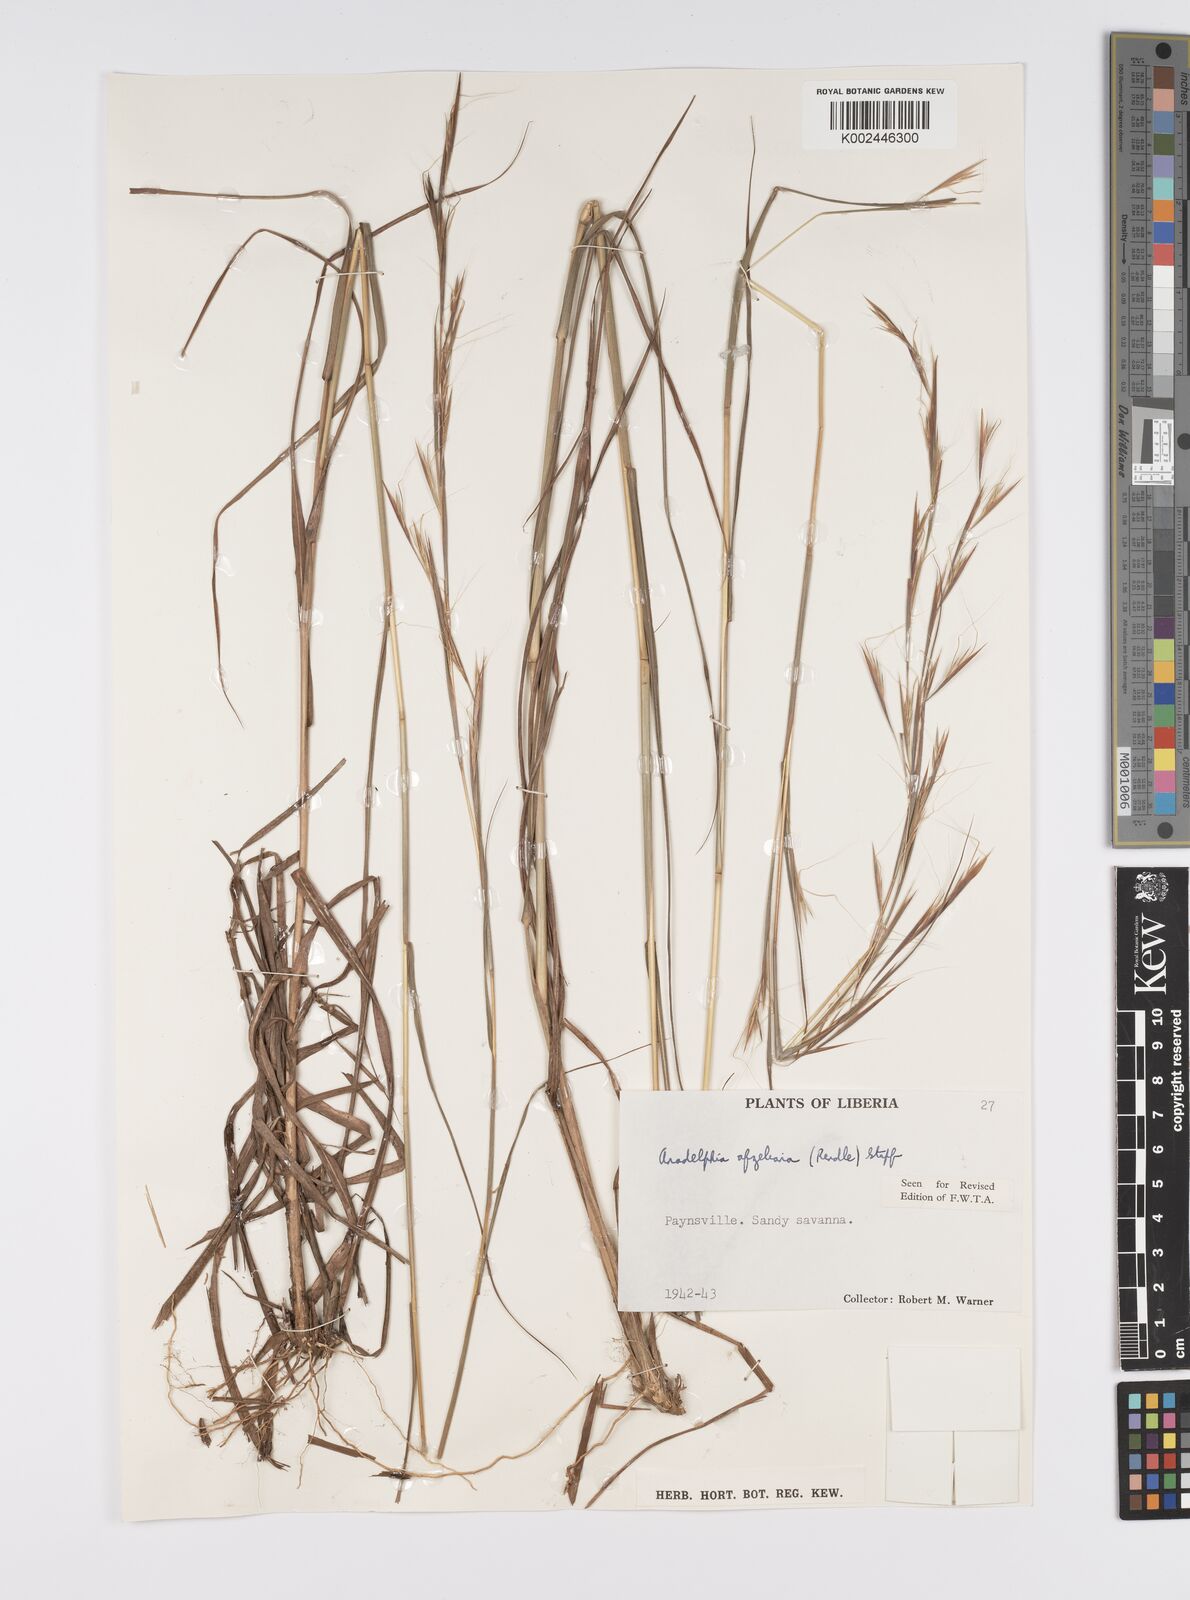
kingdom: Plantae
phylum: Tracheophyta
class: Liliopsida
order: Poales
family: Poaceae
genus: Anadelphia
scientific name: Anadelphia afzeliana
